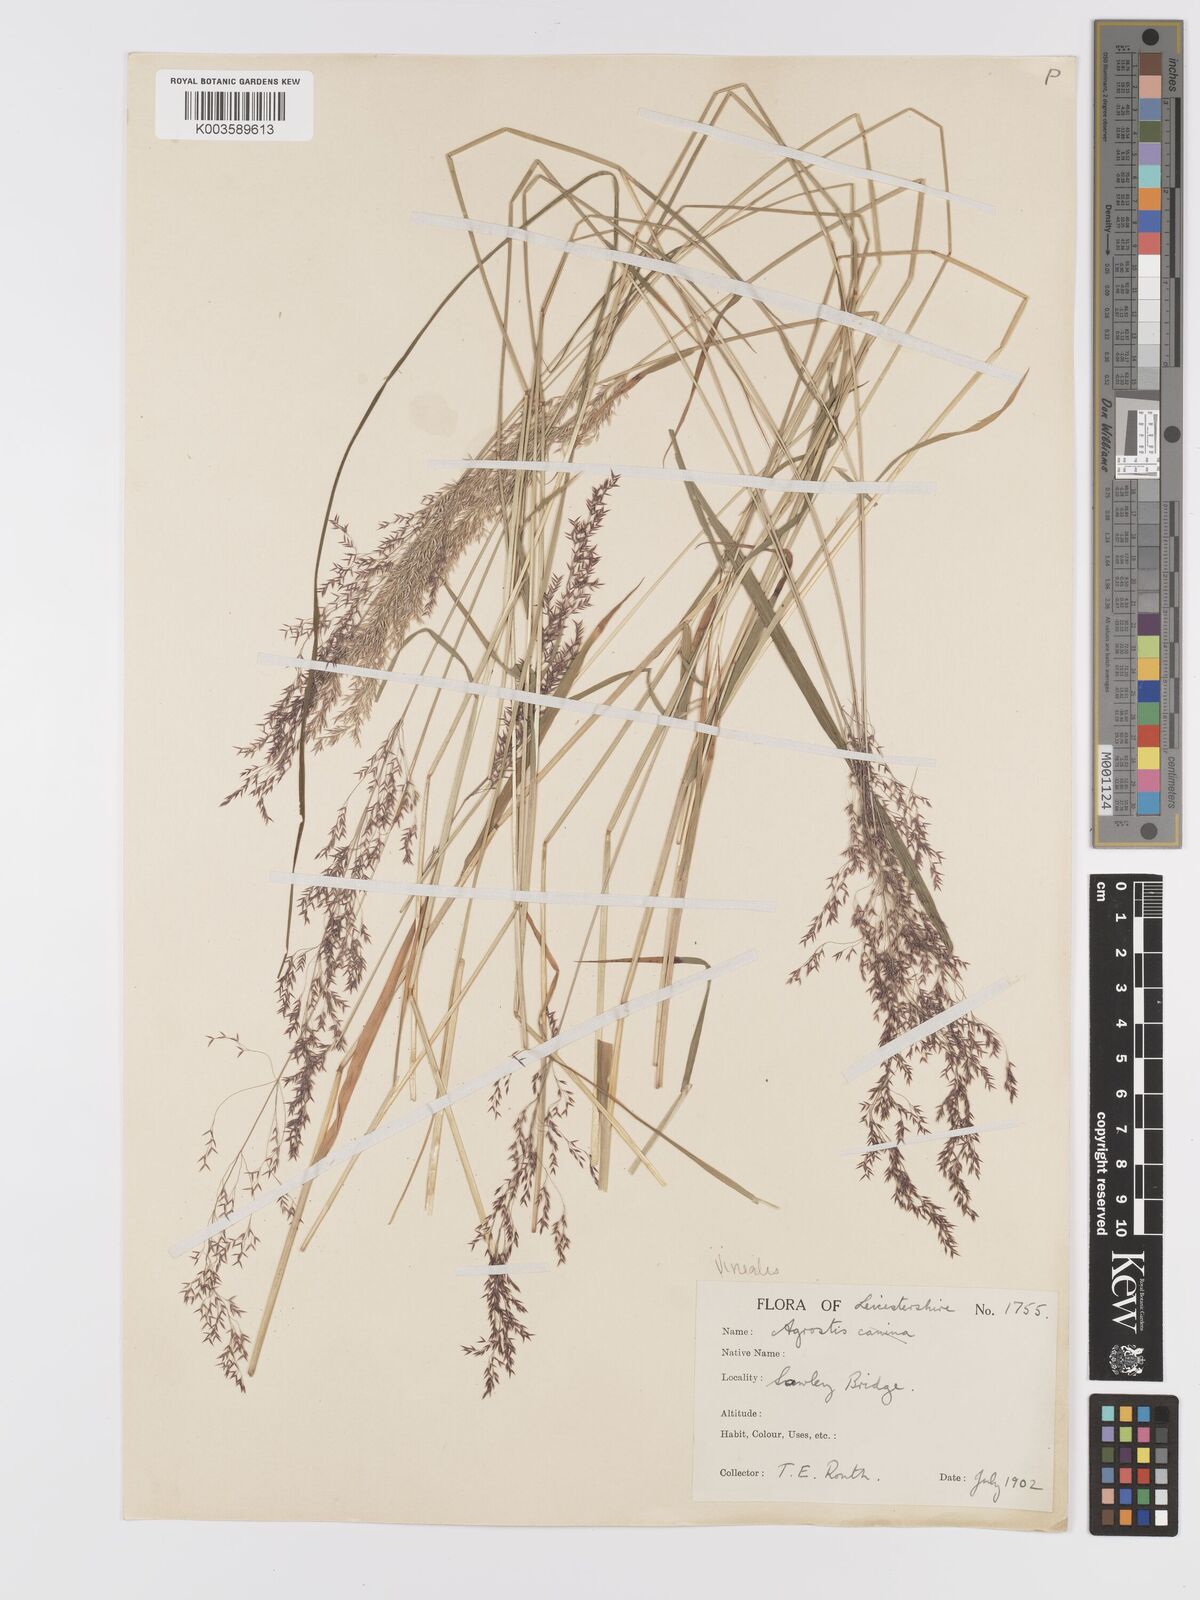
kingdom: Plantae
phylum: Tracheophyta
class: Liliopsida
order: Poales
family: Poaceae
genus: Agrostis
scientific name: Agrostis
